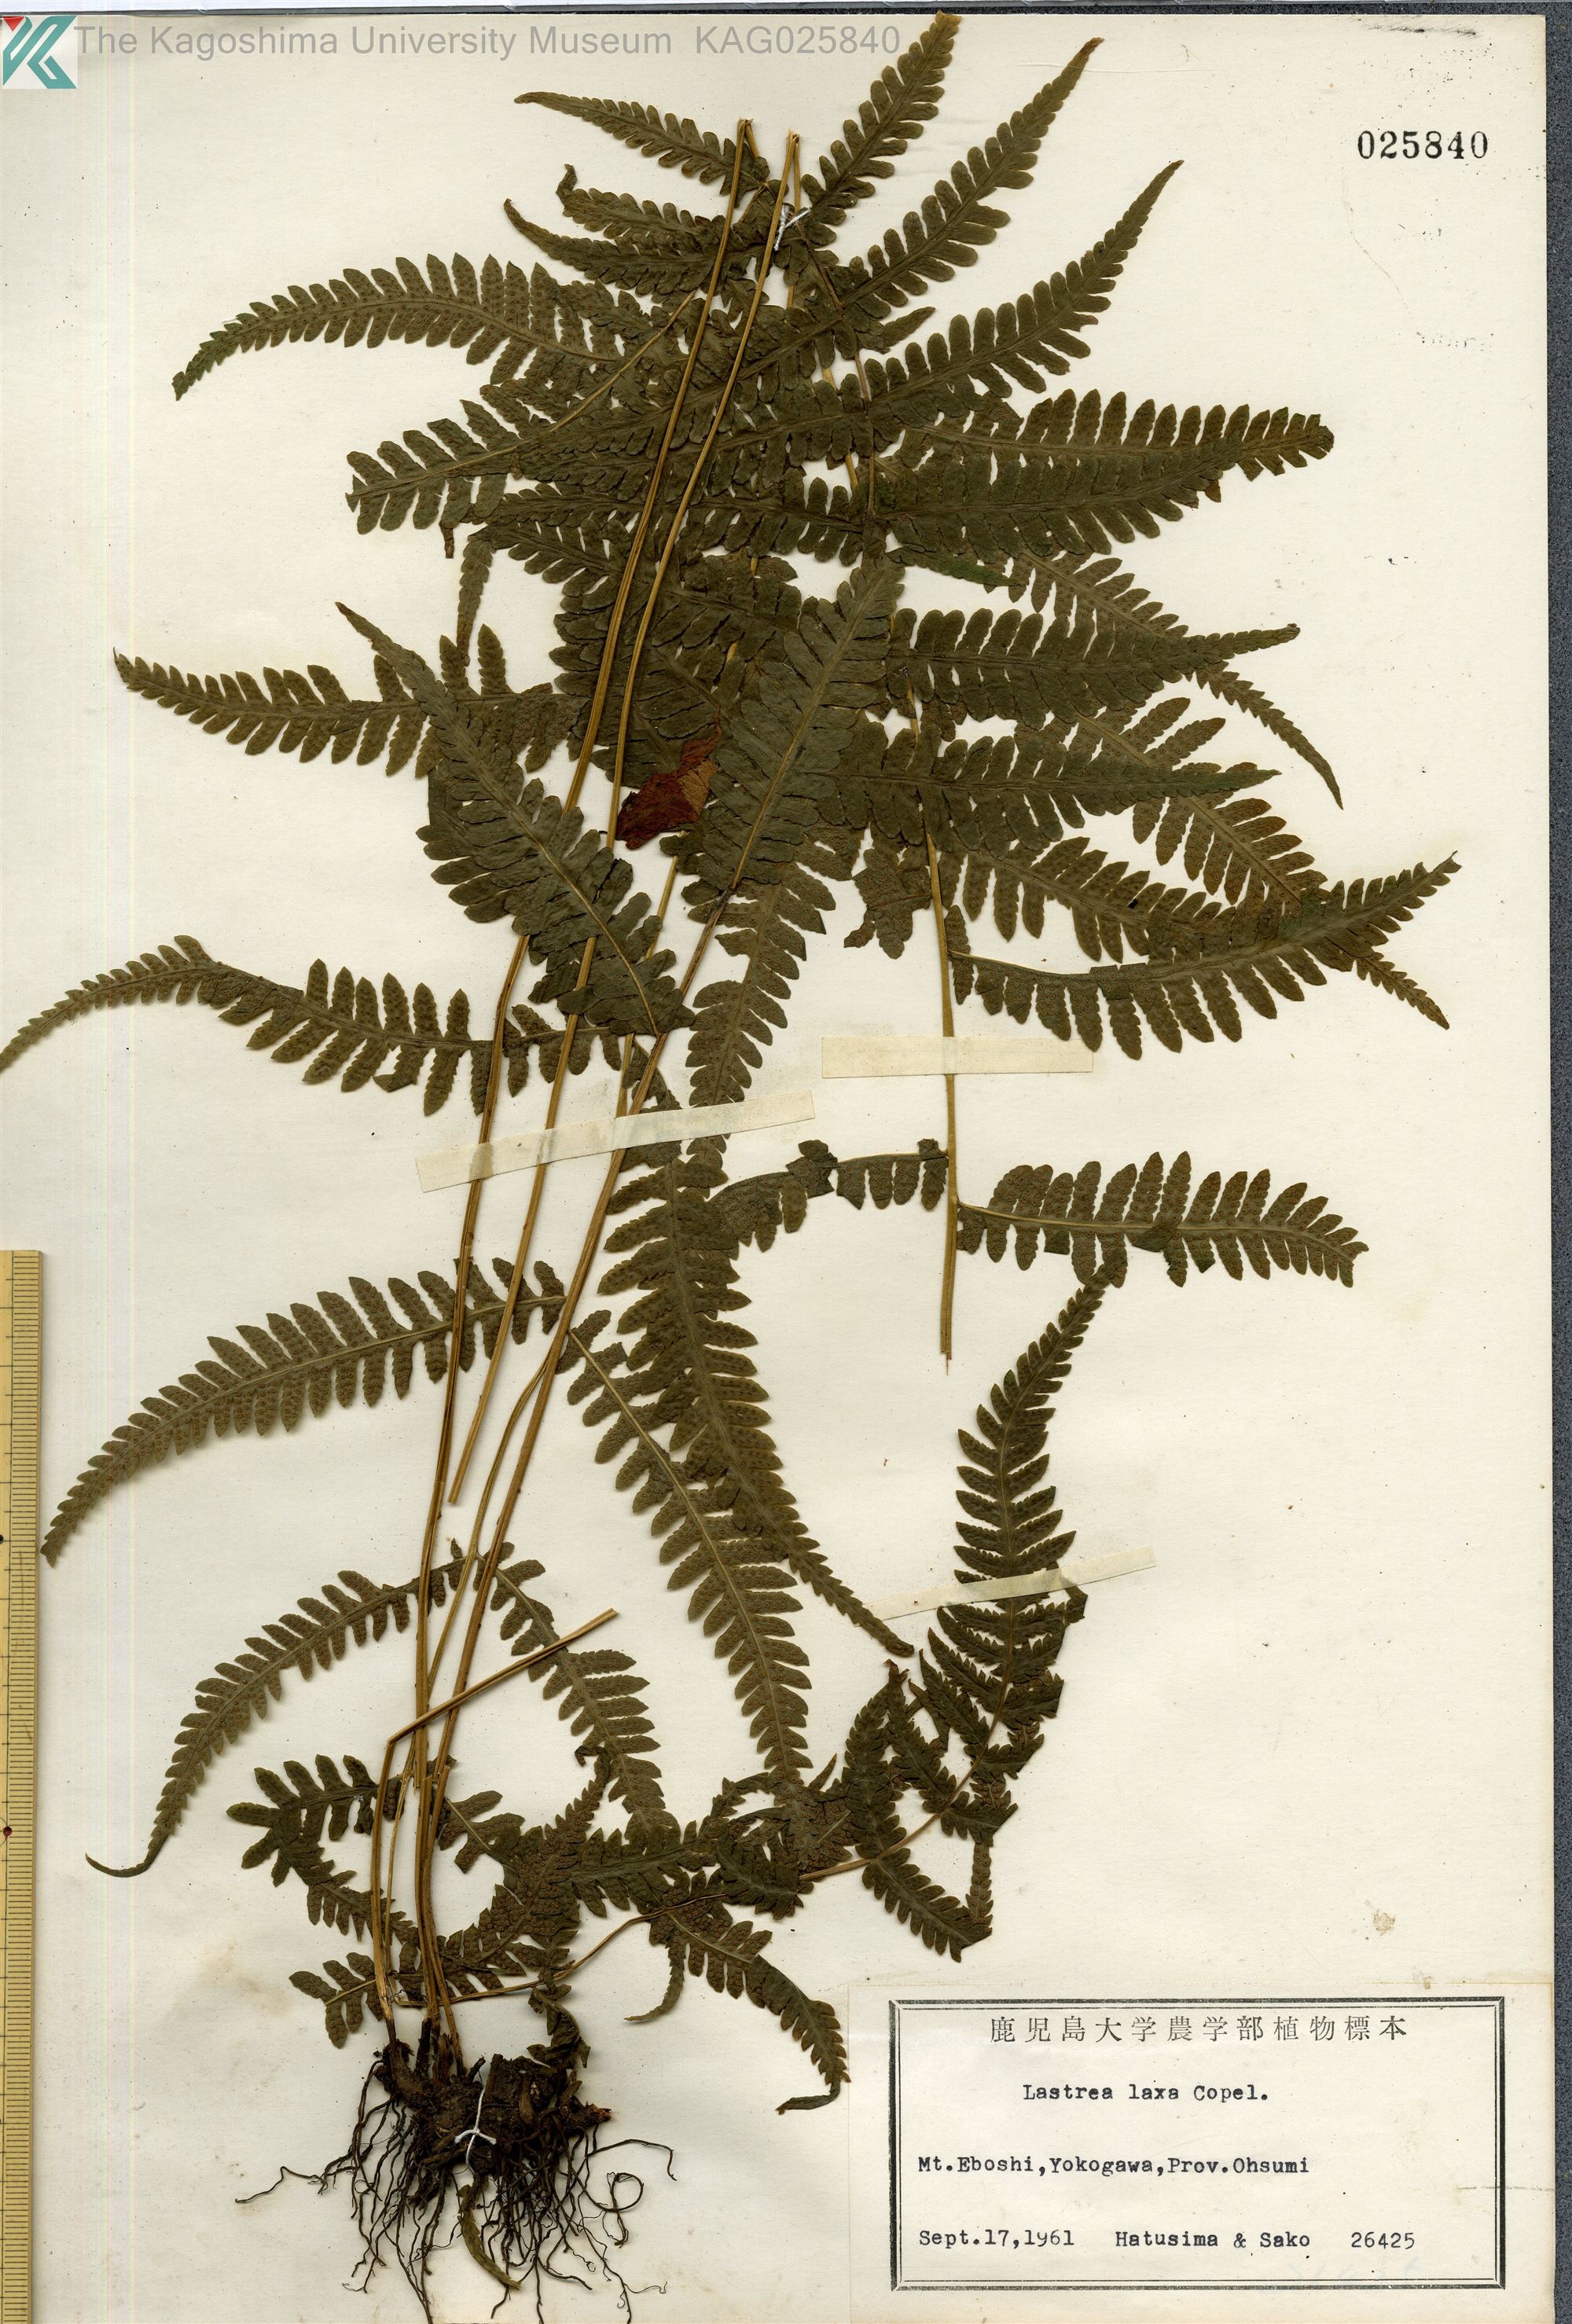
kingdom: Plantae
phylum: Tracheophyta
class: Polypodiopsida
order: Polypodiales
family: Thelypteridaceae
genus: Metathelypteris
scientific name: Metathelypteris laxa
